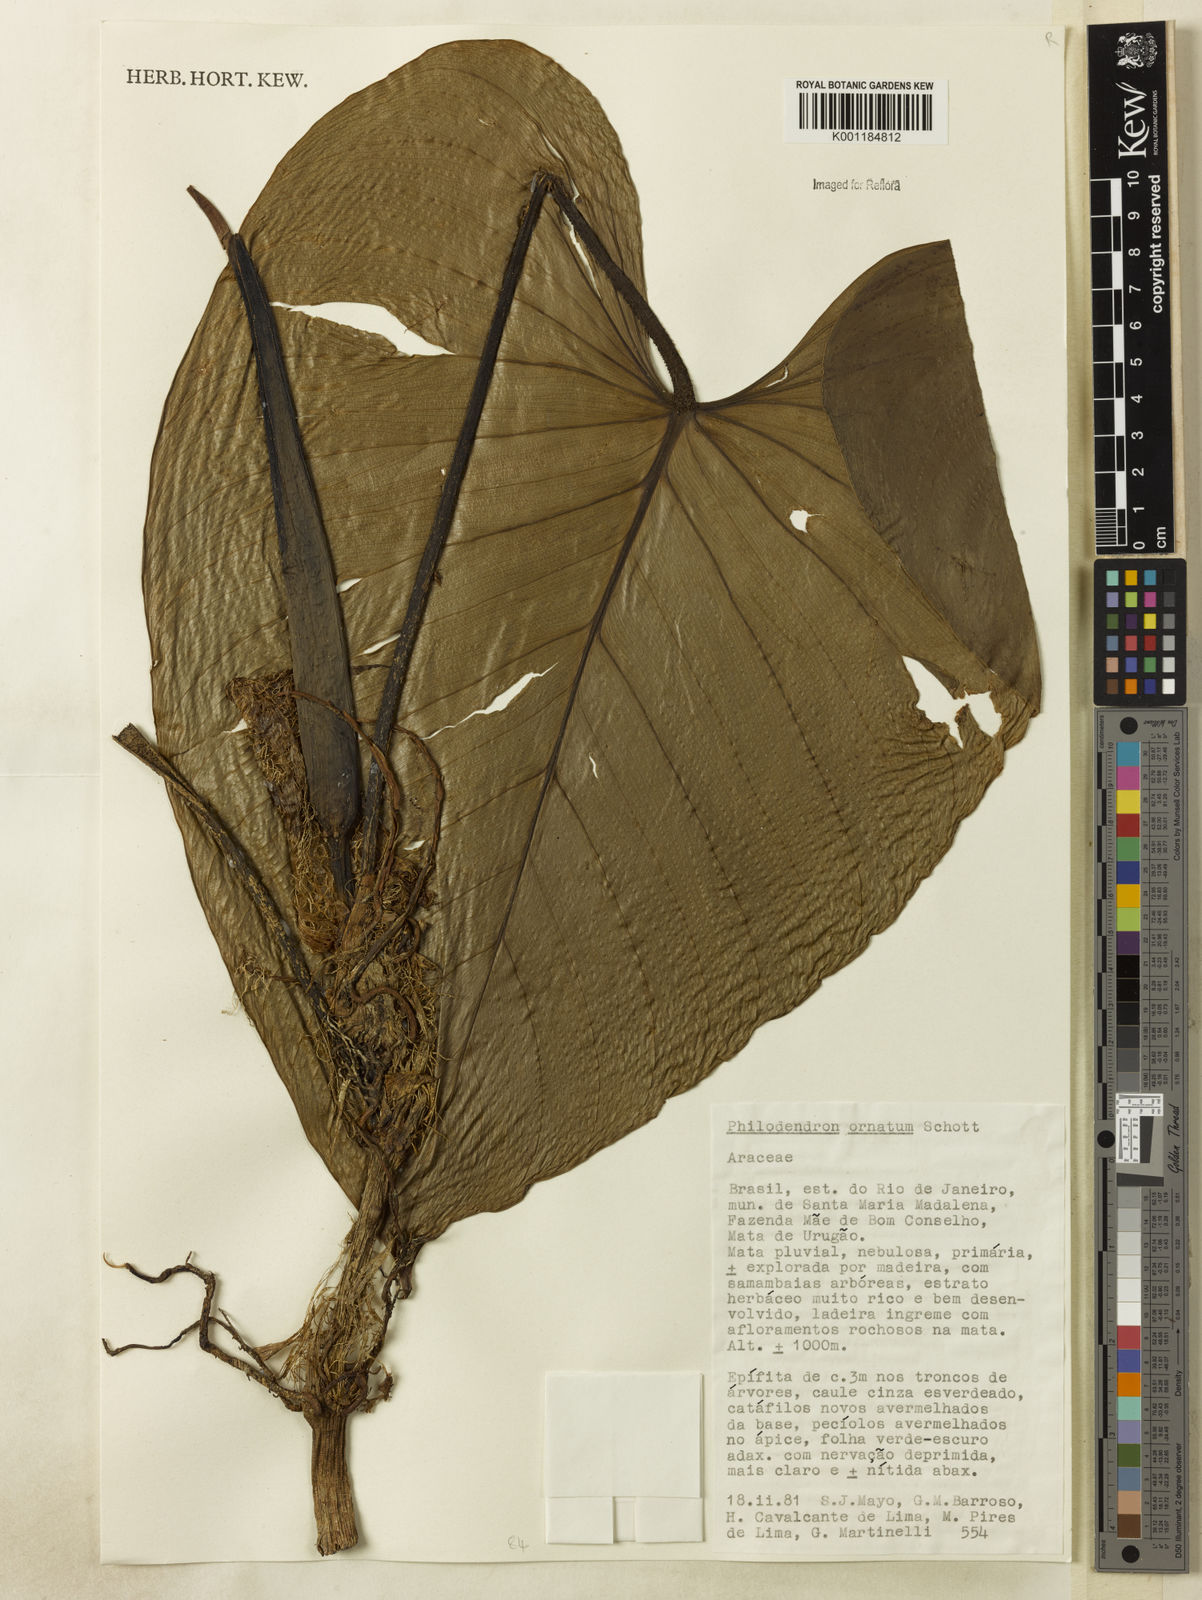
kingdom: Plantae
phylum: Tracheophyta
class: Liliopsida
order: Alismatales
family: Araceae
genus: Philodendron
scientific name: Philodendron ornatum
